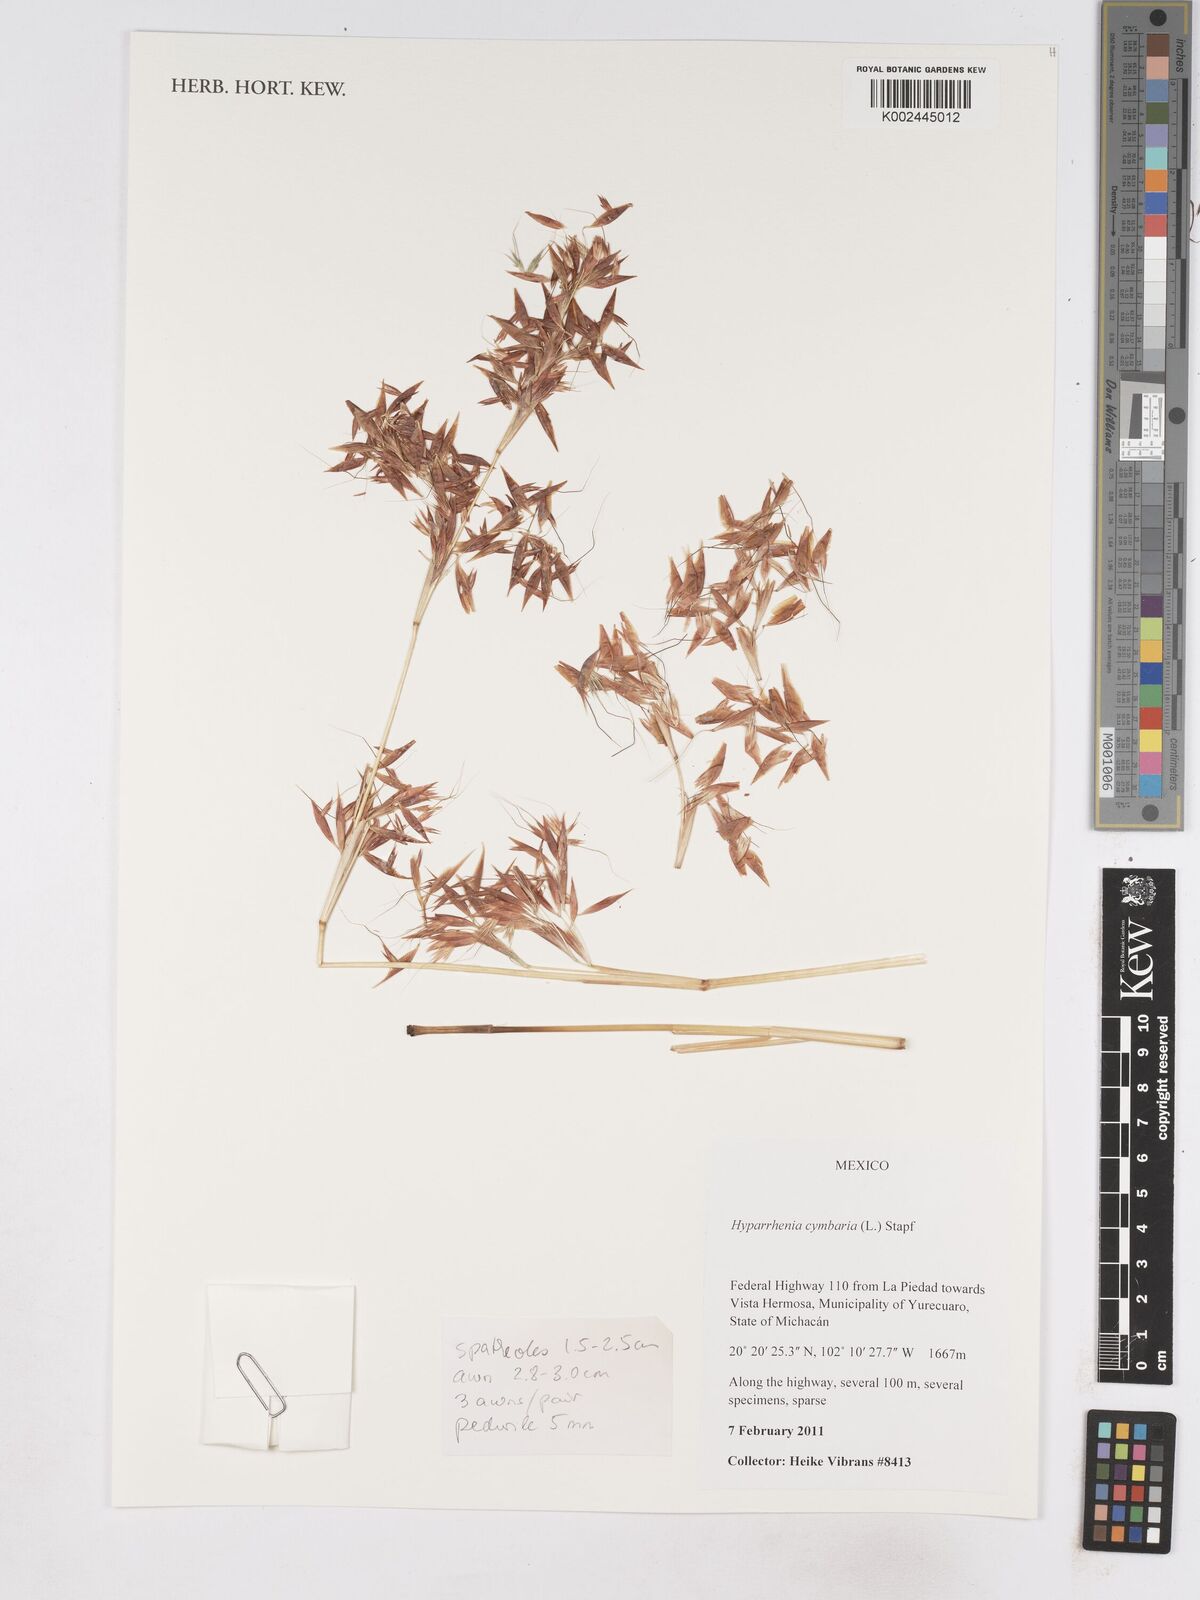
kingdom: Plantae
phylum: Tracheophyta
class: Liliopsida
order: Poales
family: Poaceae
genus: Hyparrhenia
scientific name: Hyparrhenia cymbaria
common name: Boat thatching grass
